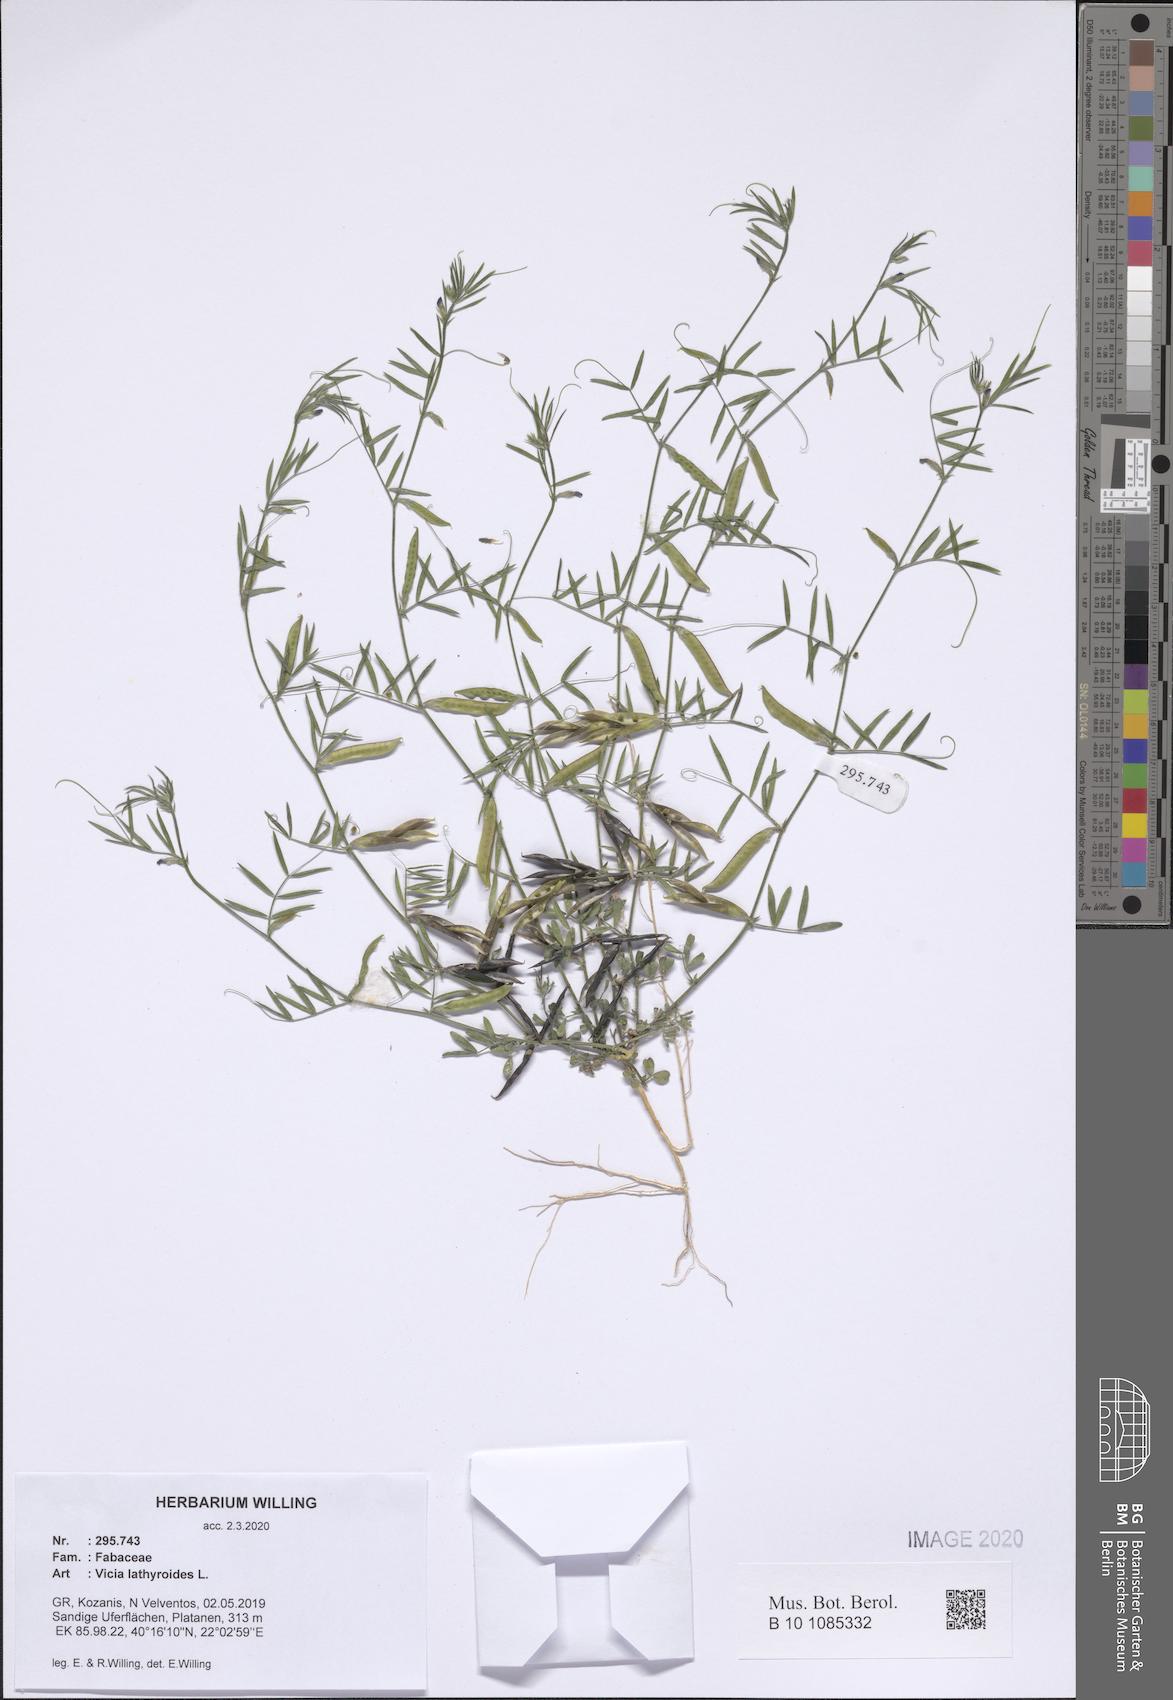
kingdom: Plantae
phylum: Tracheophyta
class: Magnoliopsida
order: Fabales
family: Fabaceae
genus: Vicia
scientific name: Vicia lathyroides
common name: Spring vetch
